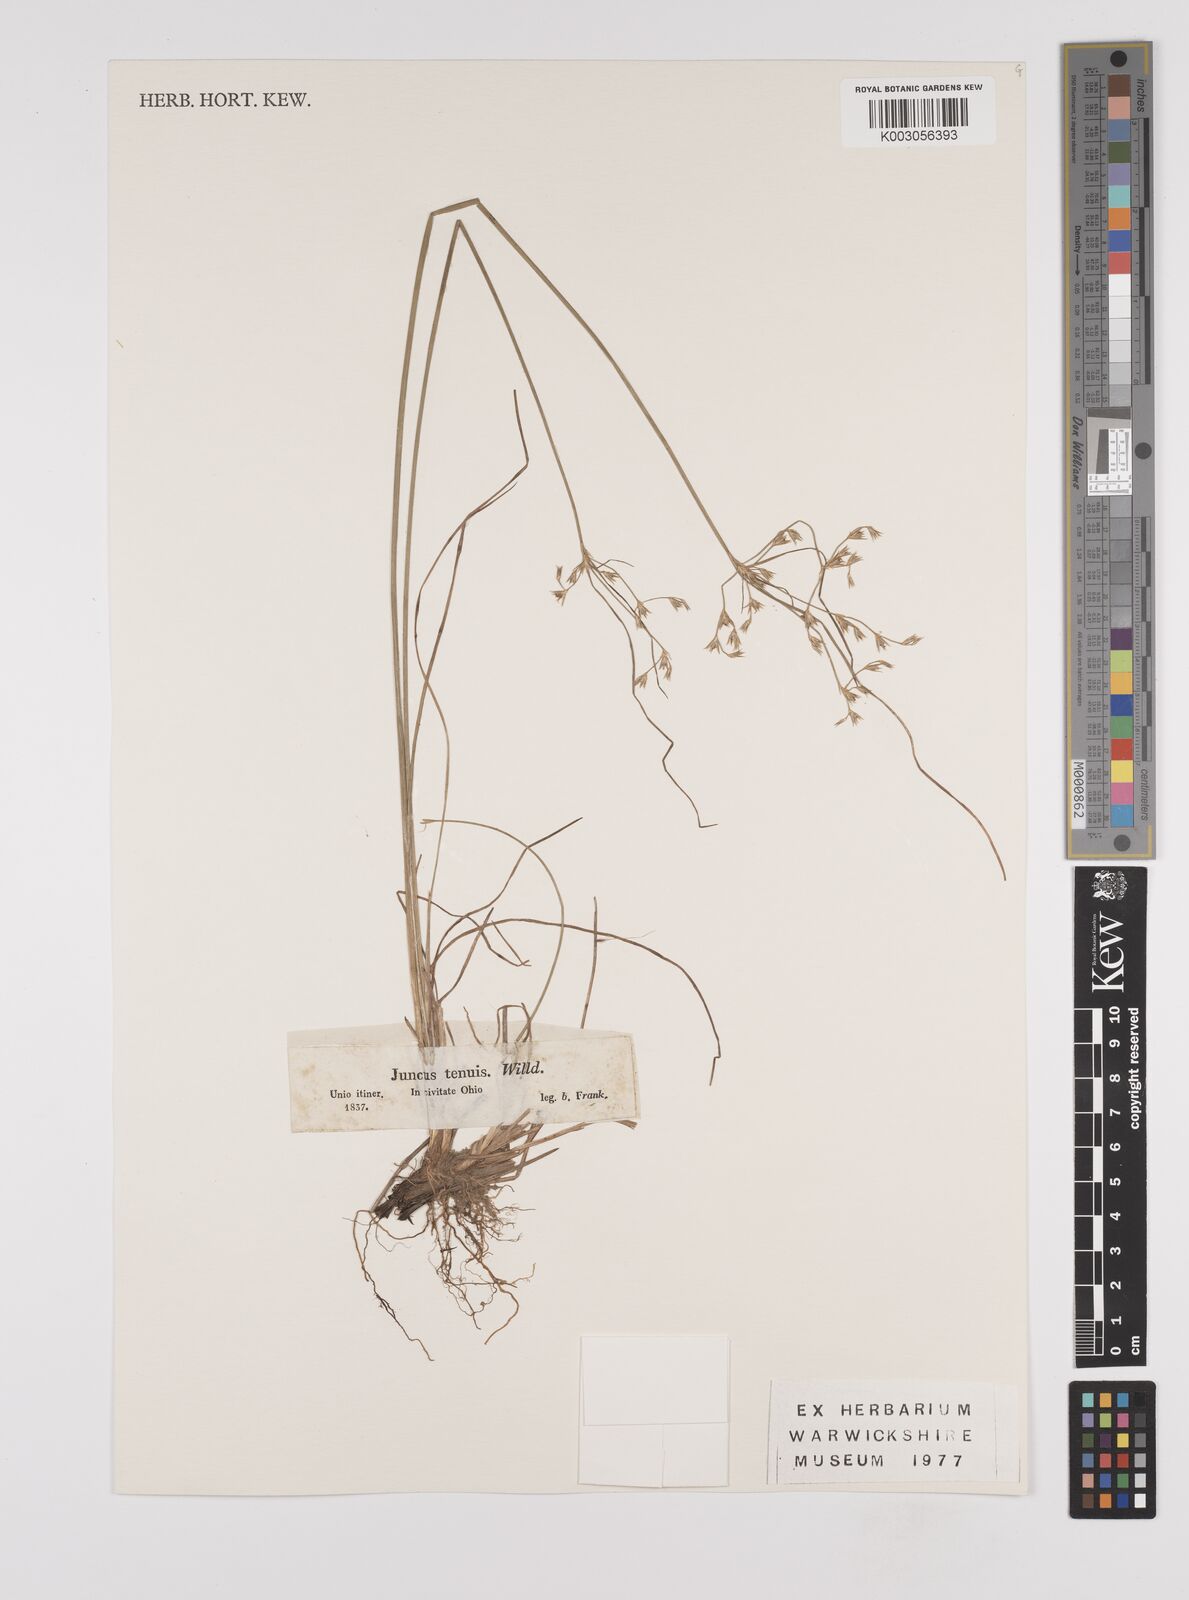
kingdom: Plantae
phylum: Tracheophyta
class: Liliopsida
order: Poales
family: Juncaceae
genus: Juncus
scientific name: Juncus tenuis
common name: Slender rush
